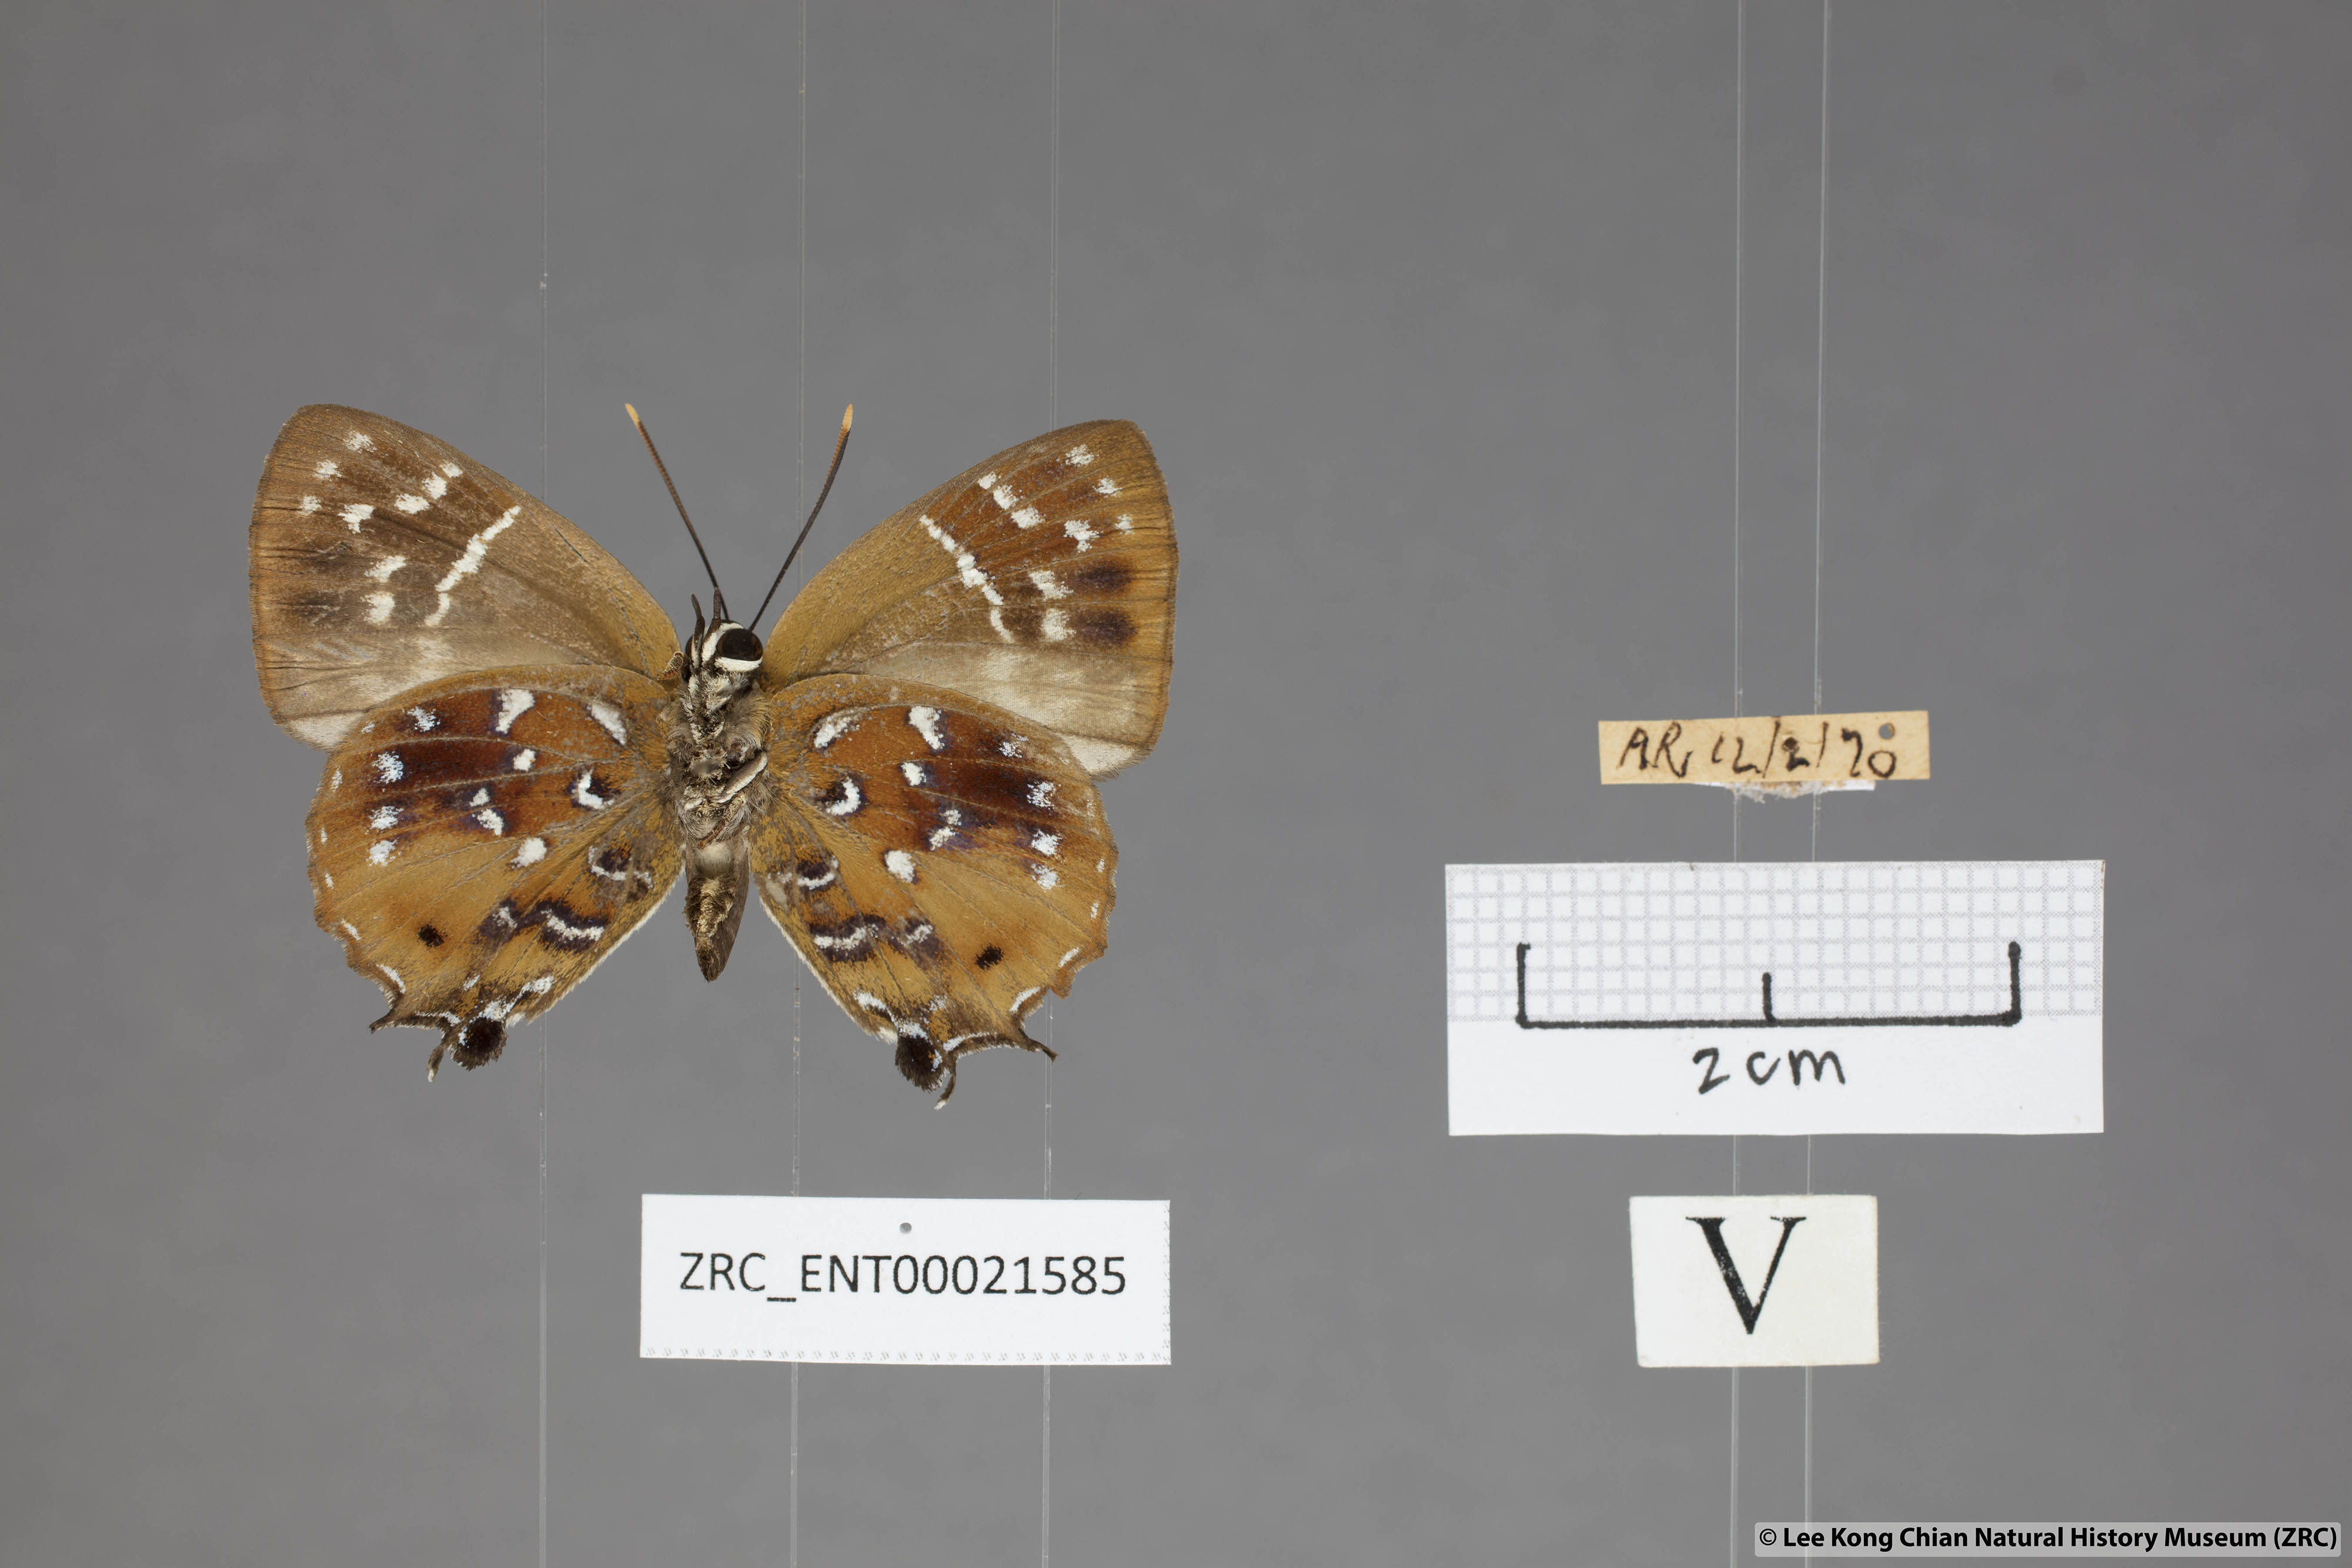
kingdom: Animalia
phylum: Arthropoda
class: Insecta
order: Lepidoptera
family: Lycaenidae
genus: Iraota
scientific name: Iraota
